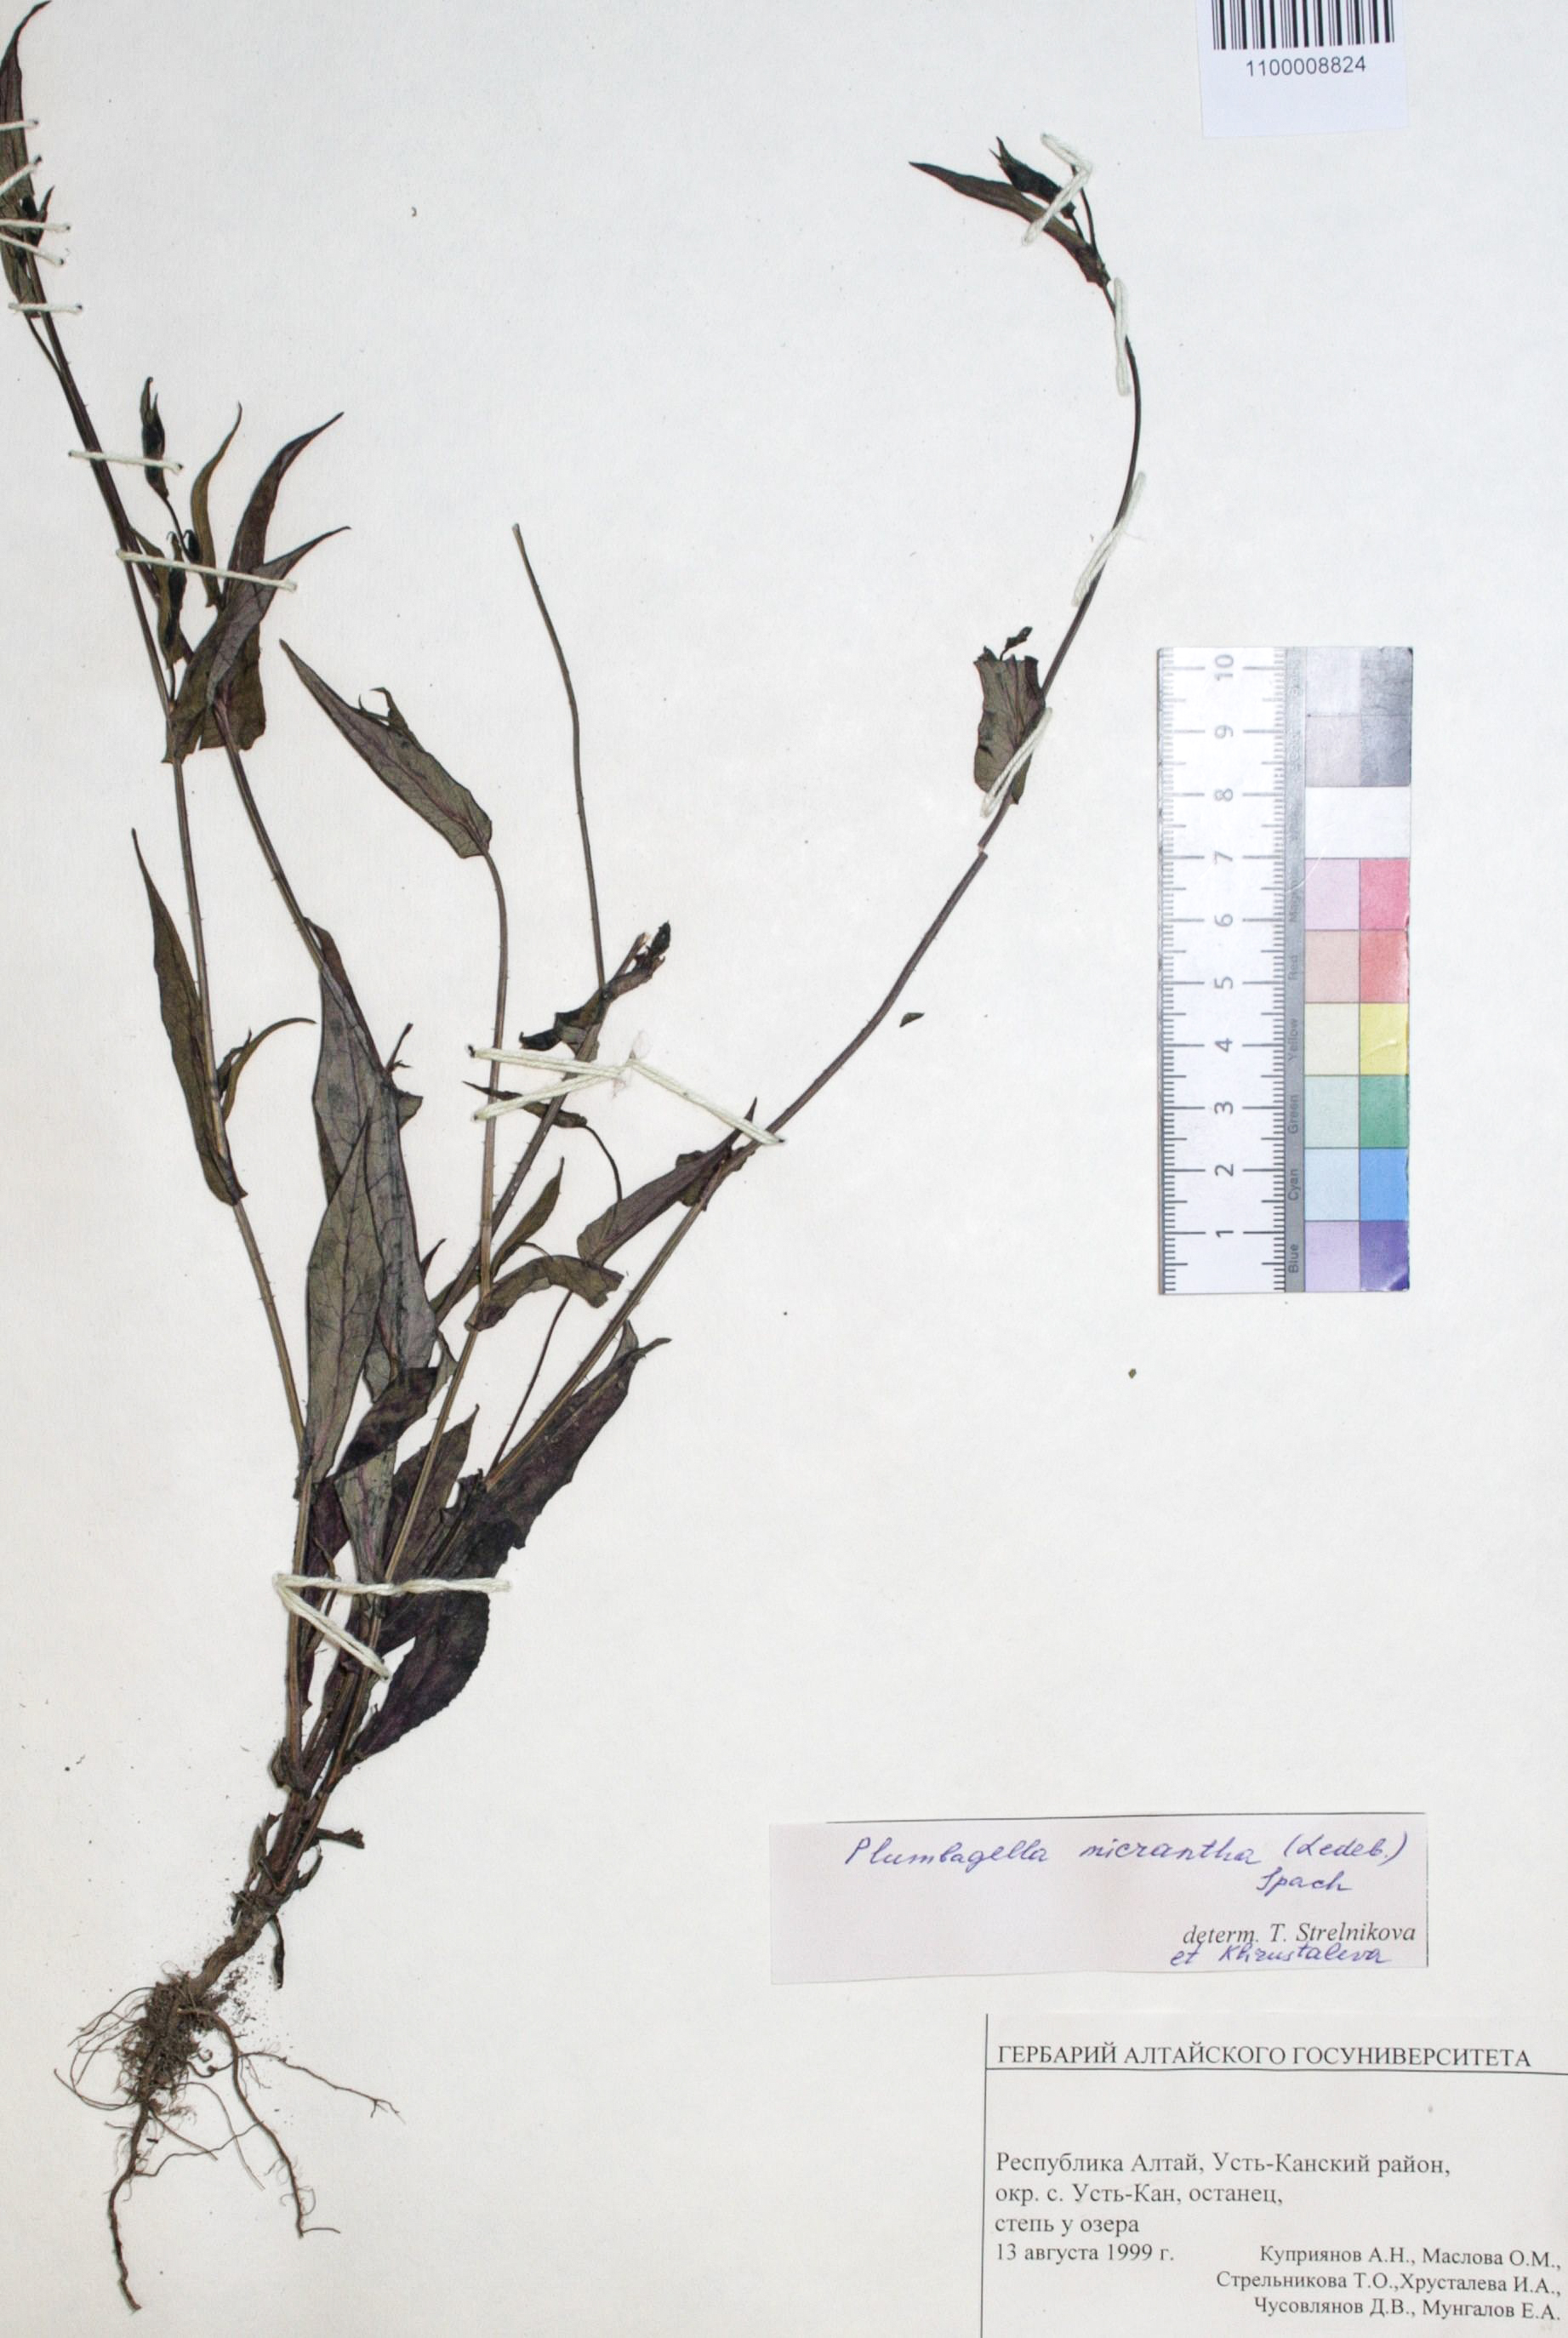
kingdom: Plantae
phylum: Tracheophyta
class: Magnoliopsida
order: Caryophyllales
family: Plumbaginaceae
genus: Plumbagella
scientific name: Plumbagella micrantha
